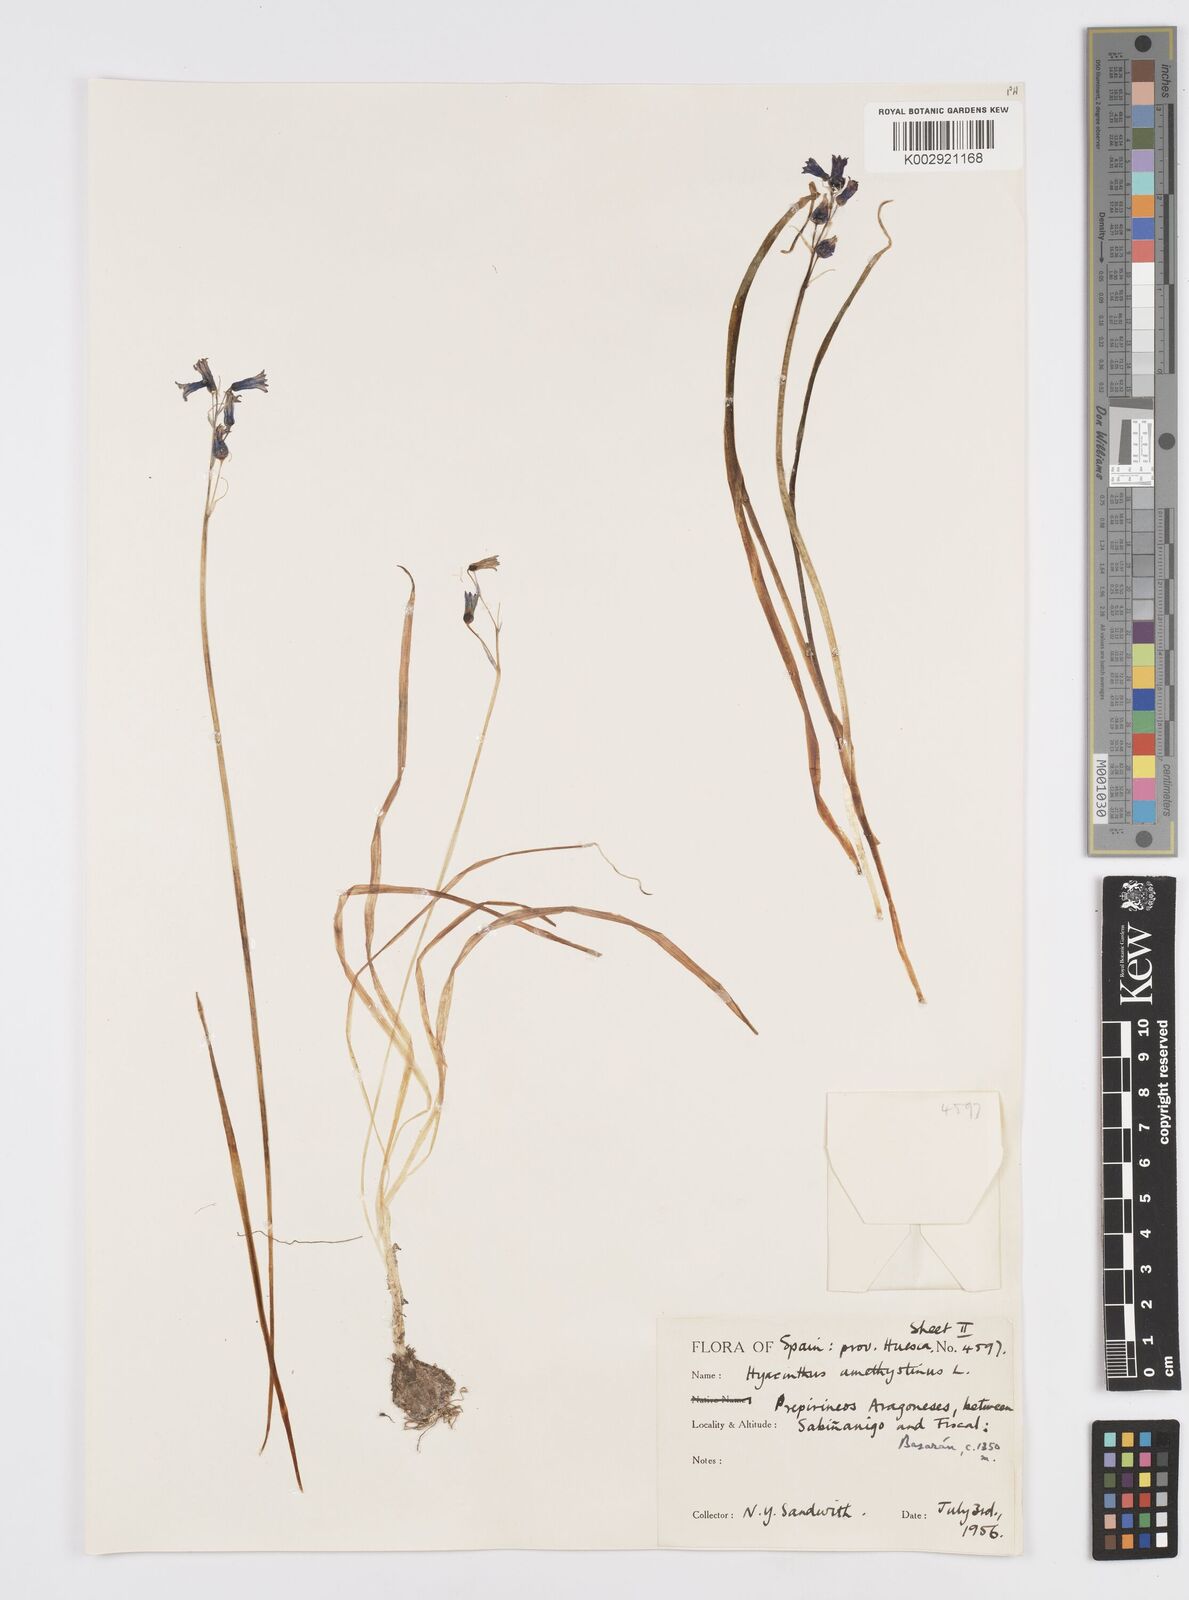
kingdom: Plantae
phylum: Tracheophyta
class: Liliopsida
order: Asparagales
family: Asparagaceae
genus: Brimeura
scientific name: Brimeura
